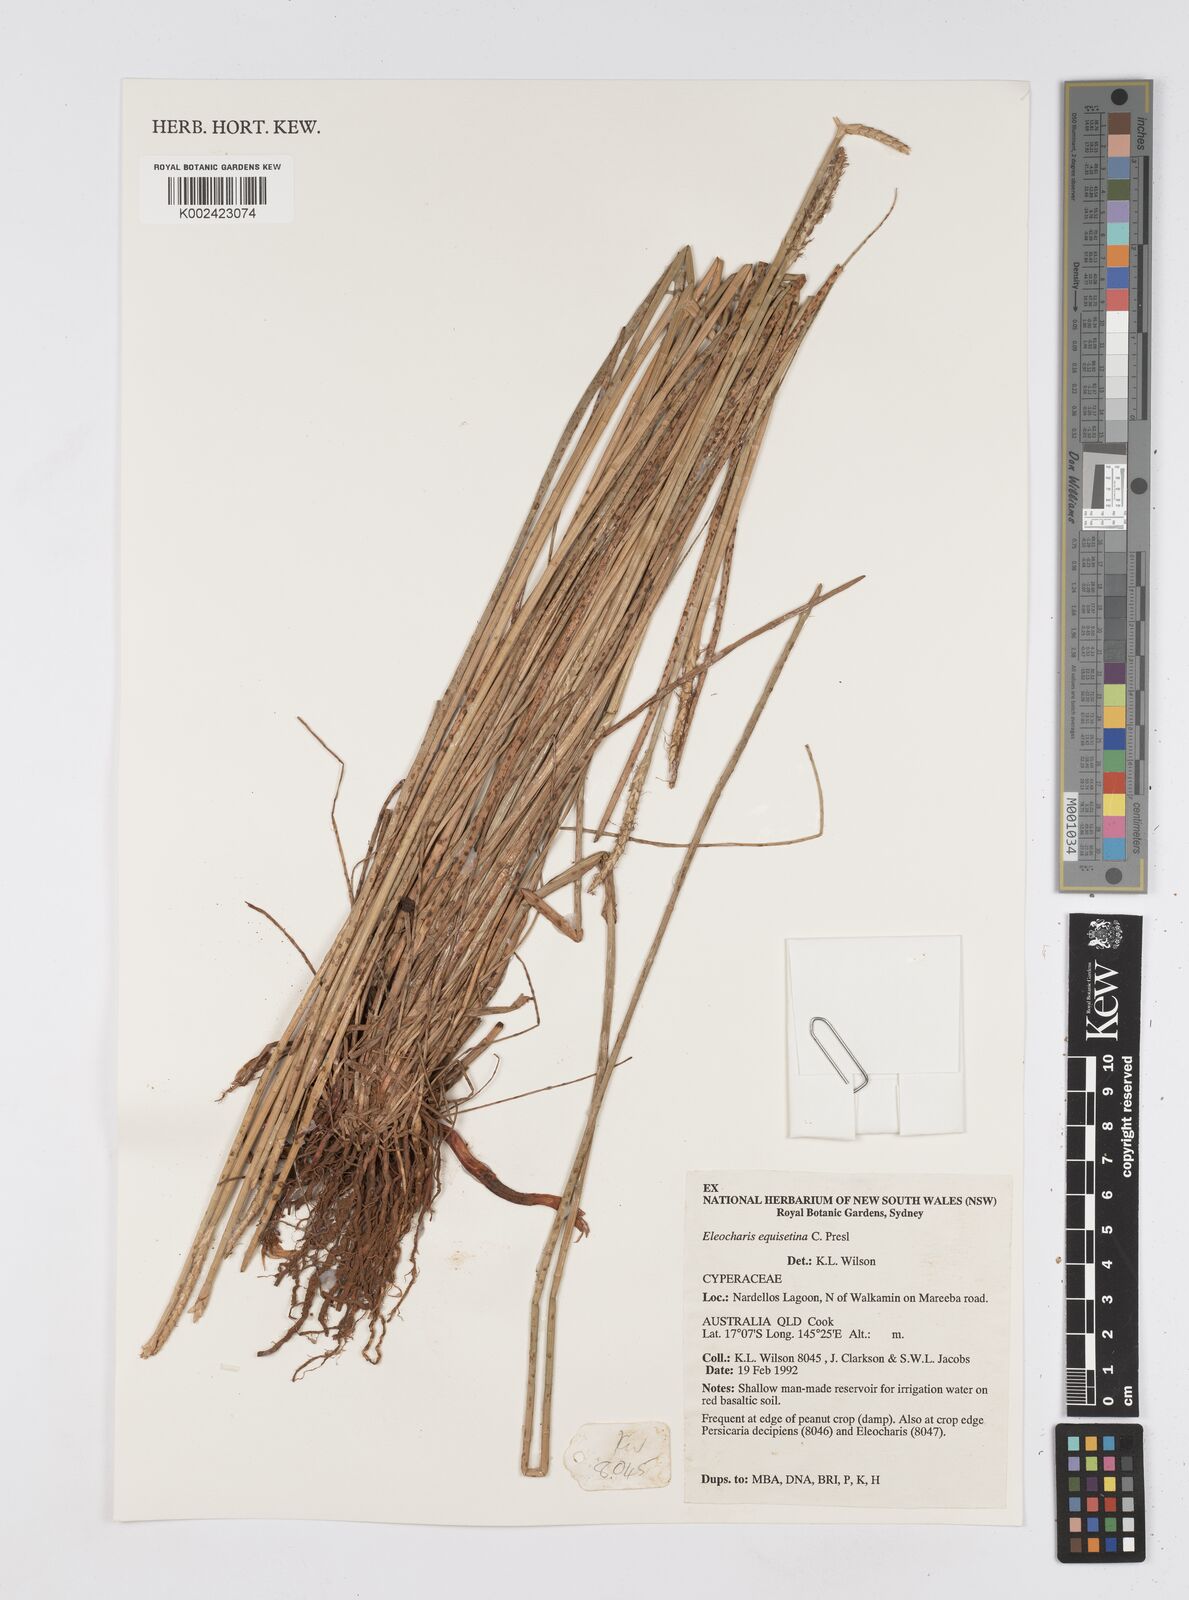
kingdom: Plantae
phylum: Tracheophyta
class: Liliopsida
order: Poales
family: Cyperaceae
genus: Eleocharis
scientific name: Eleocharis dulcis
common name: Chinese water chestnut
